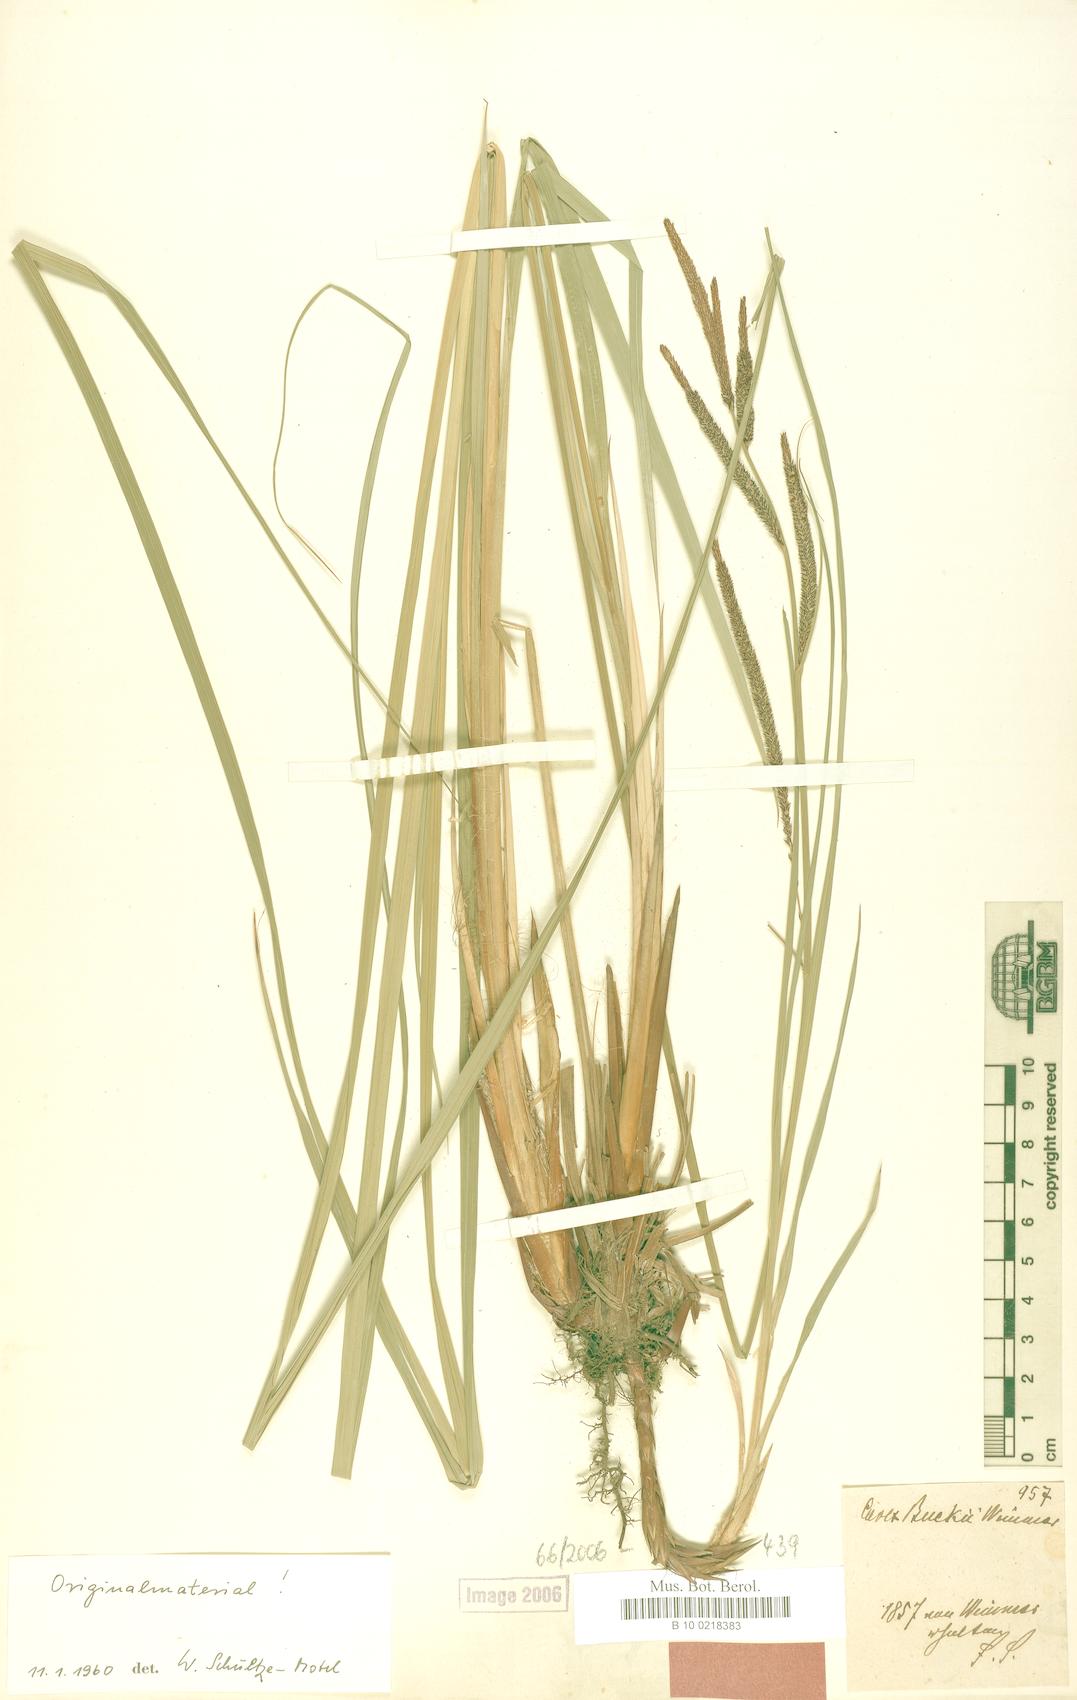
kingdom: Plantae
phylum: Tracheophyta
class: Liliopsida
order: Poales
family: Cyperaceae
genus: Carex
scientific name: Carex buekii
